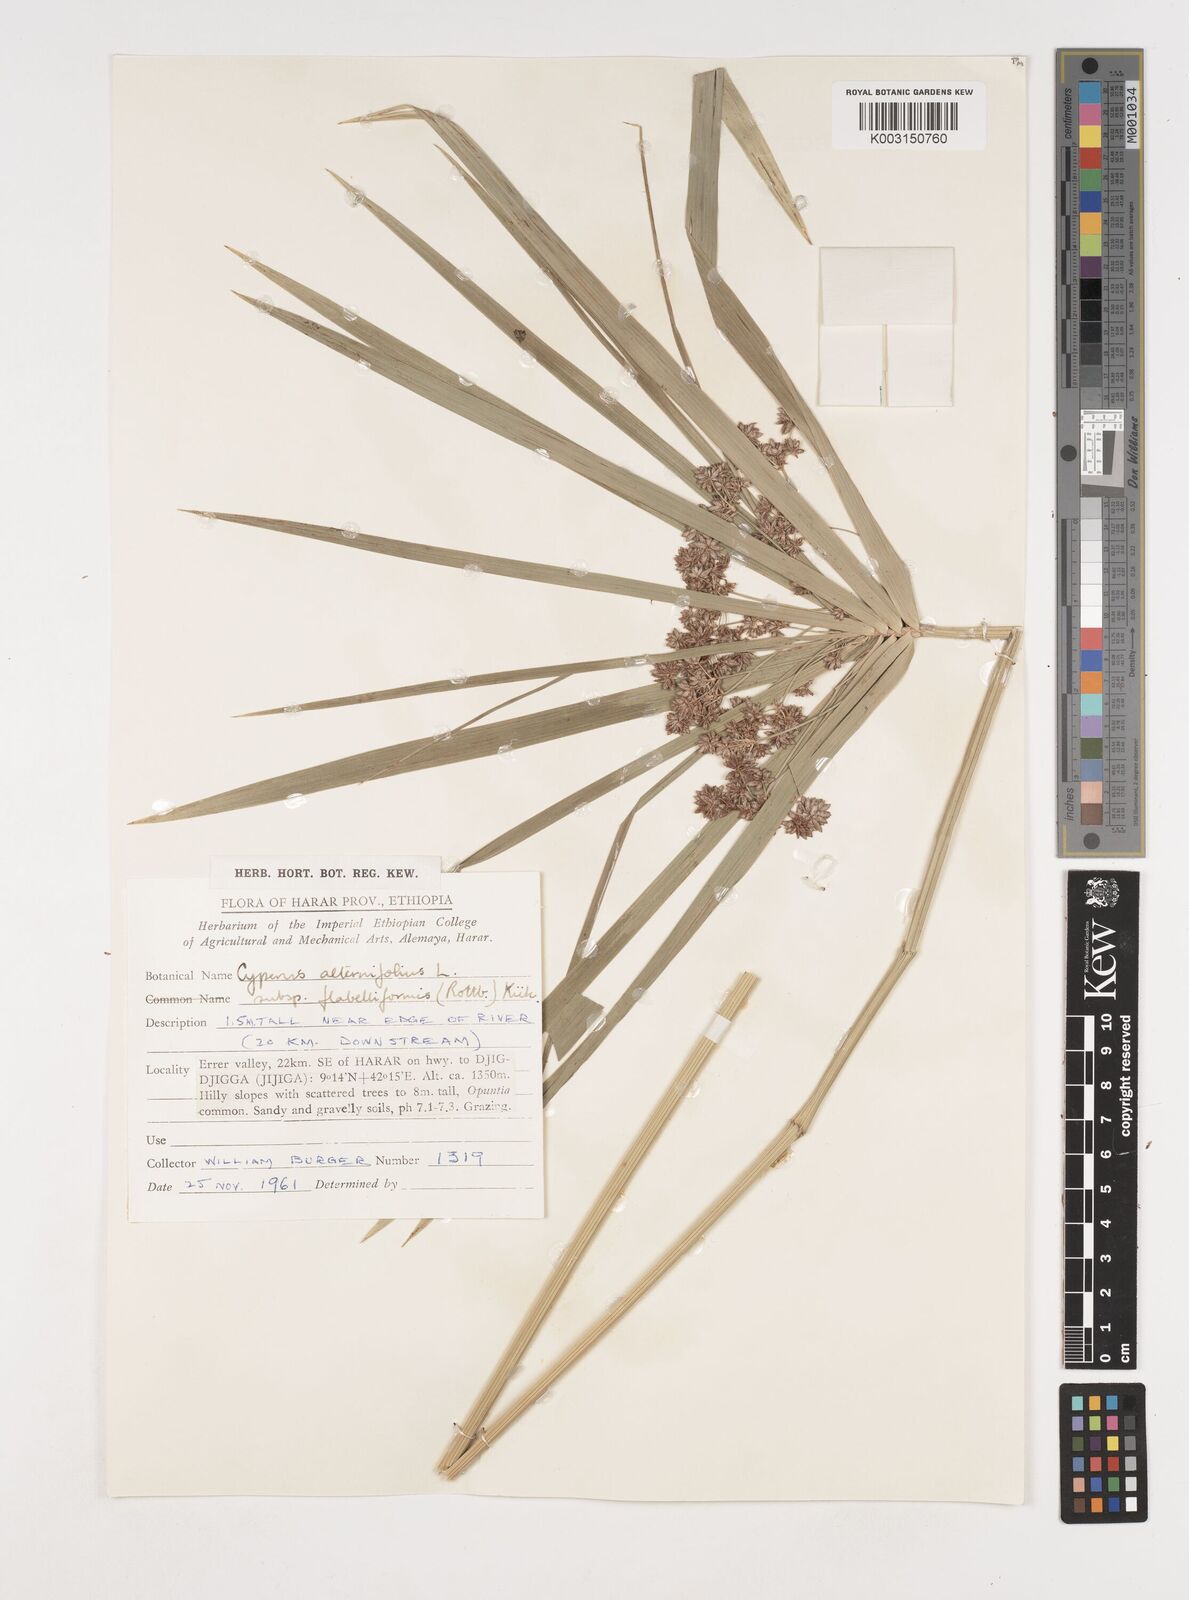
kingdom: Plantae
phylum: Tracheophyta
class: Liliopsida
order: Poales
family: Cyperaceae
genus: Cyperus
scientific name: Cyperus alternifolius
